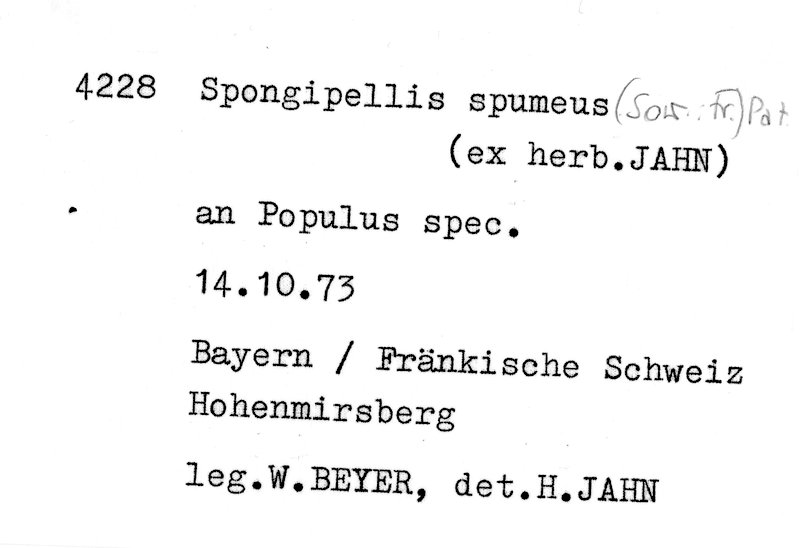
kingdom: Fungi
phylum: Basidiomycota
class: Agaricomycetes
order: Polyporales
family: Meruliaceae
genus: Sarcodontia
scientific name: Sarcodontia spumea
